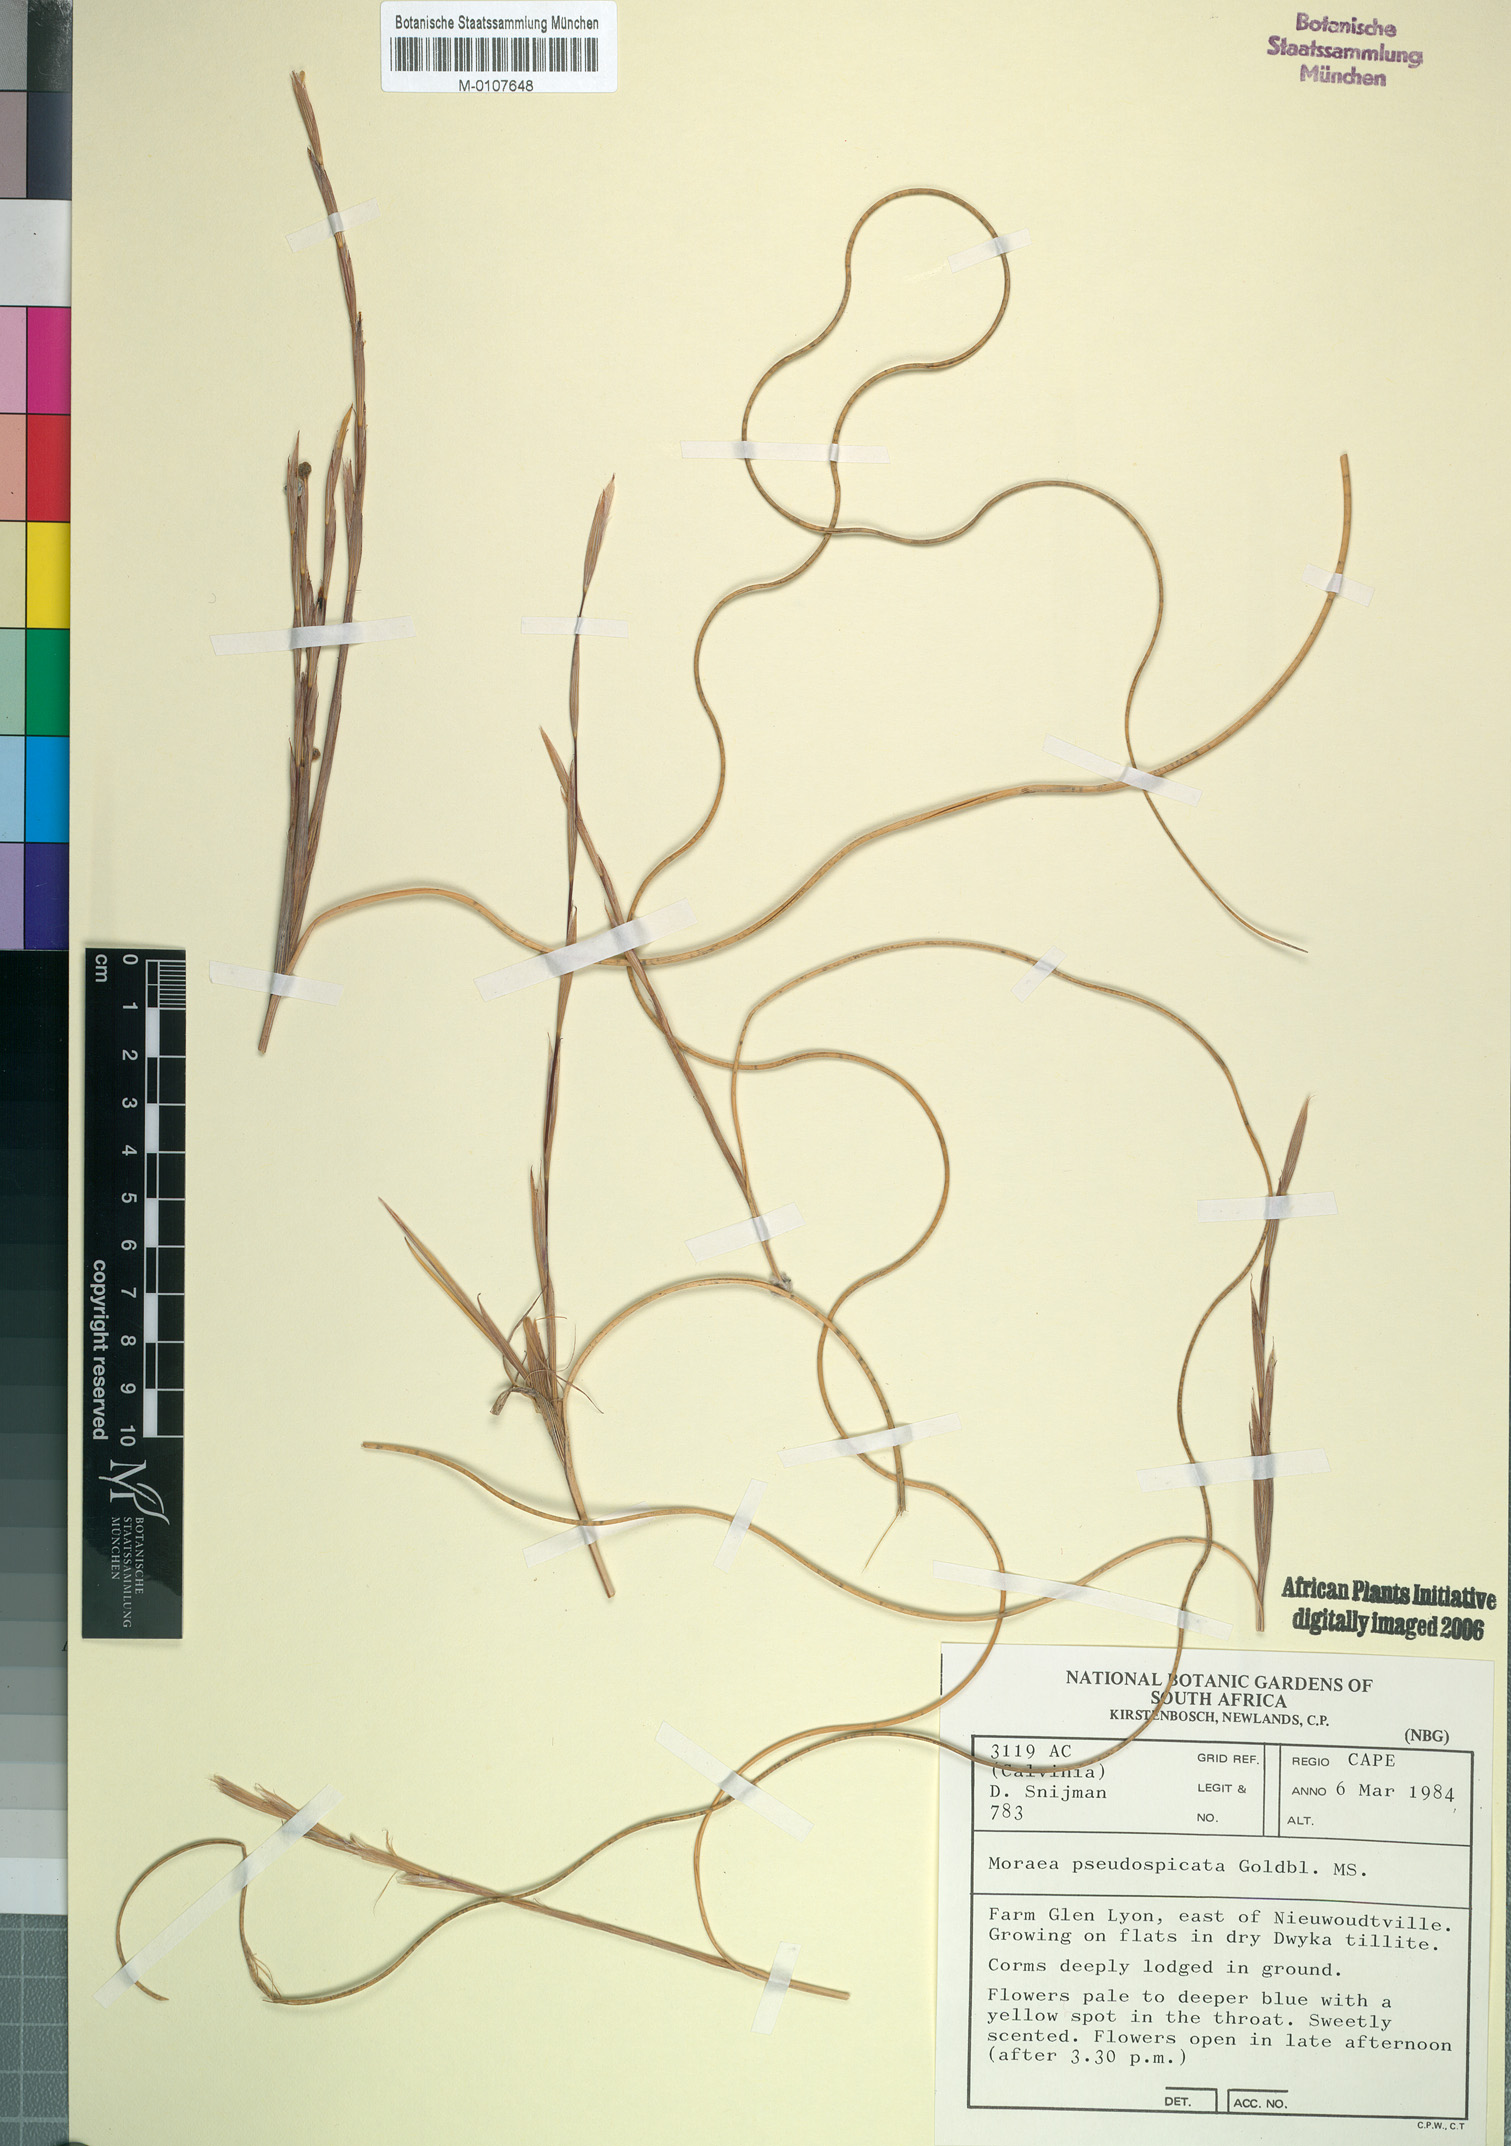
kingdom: Plantae
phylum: Tracheophyta
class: Liliopsida
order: Asparagales
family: Iridaceae
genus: Moraea
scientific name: Moraea pseudospicata
